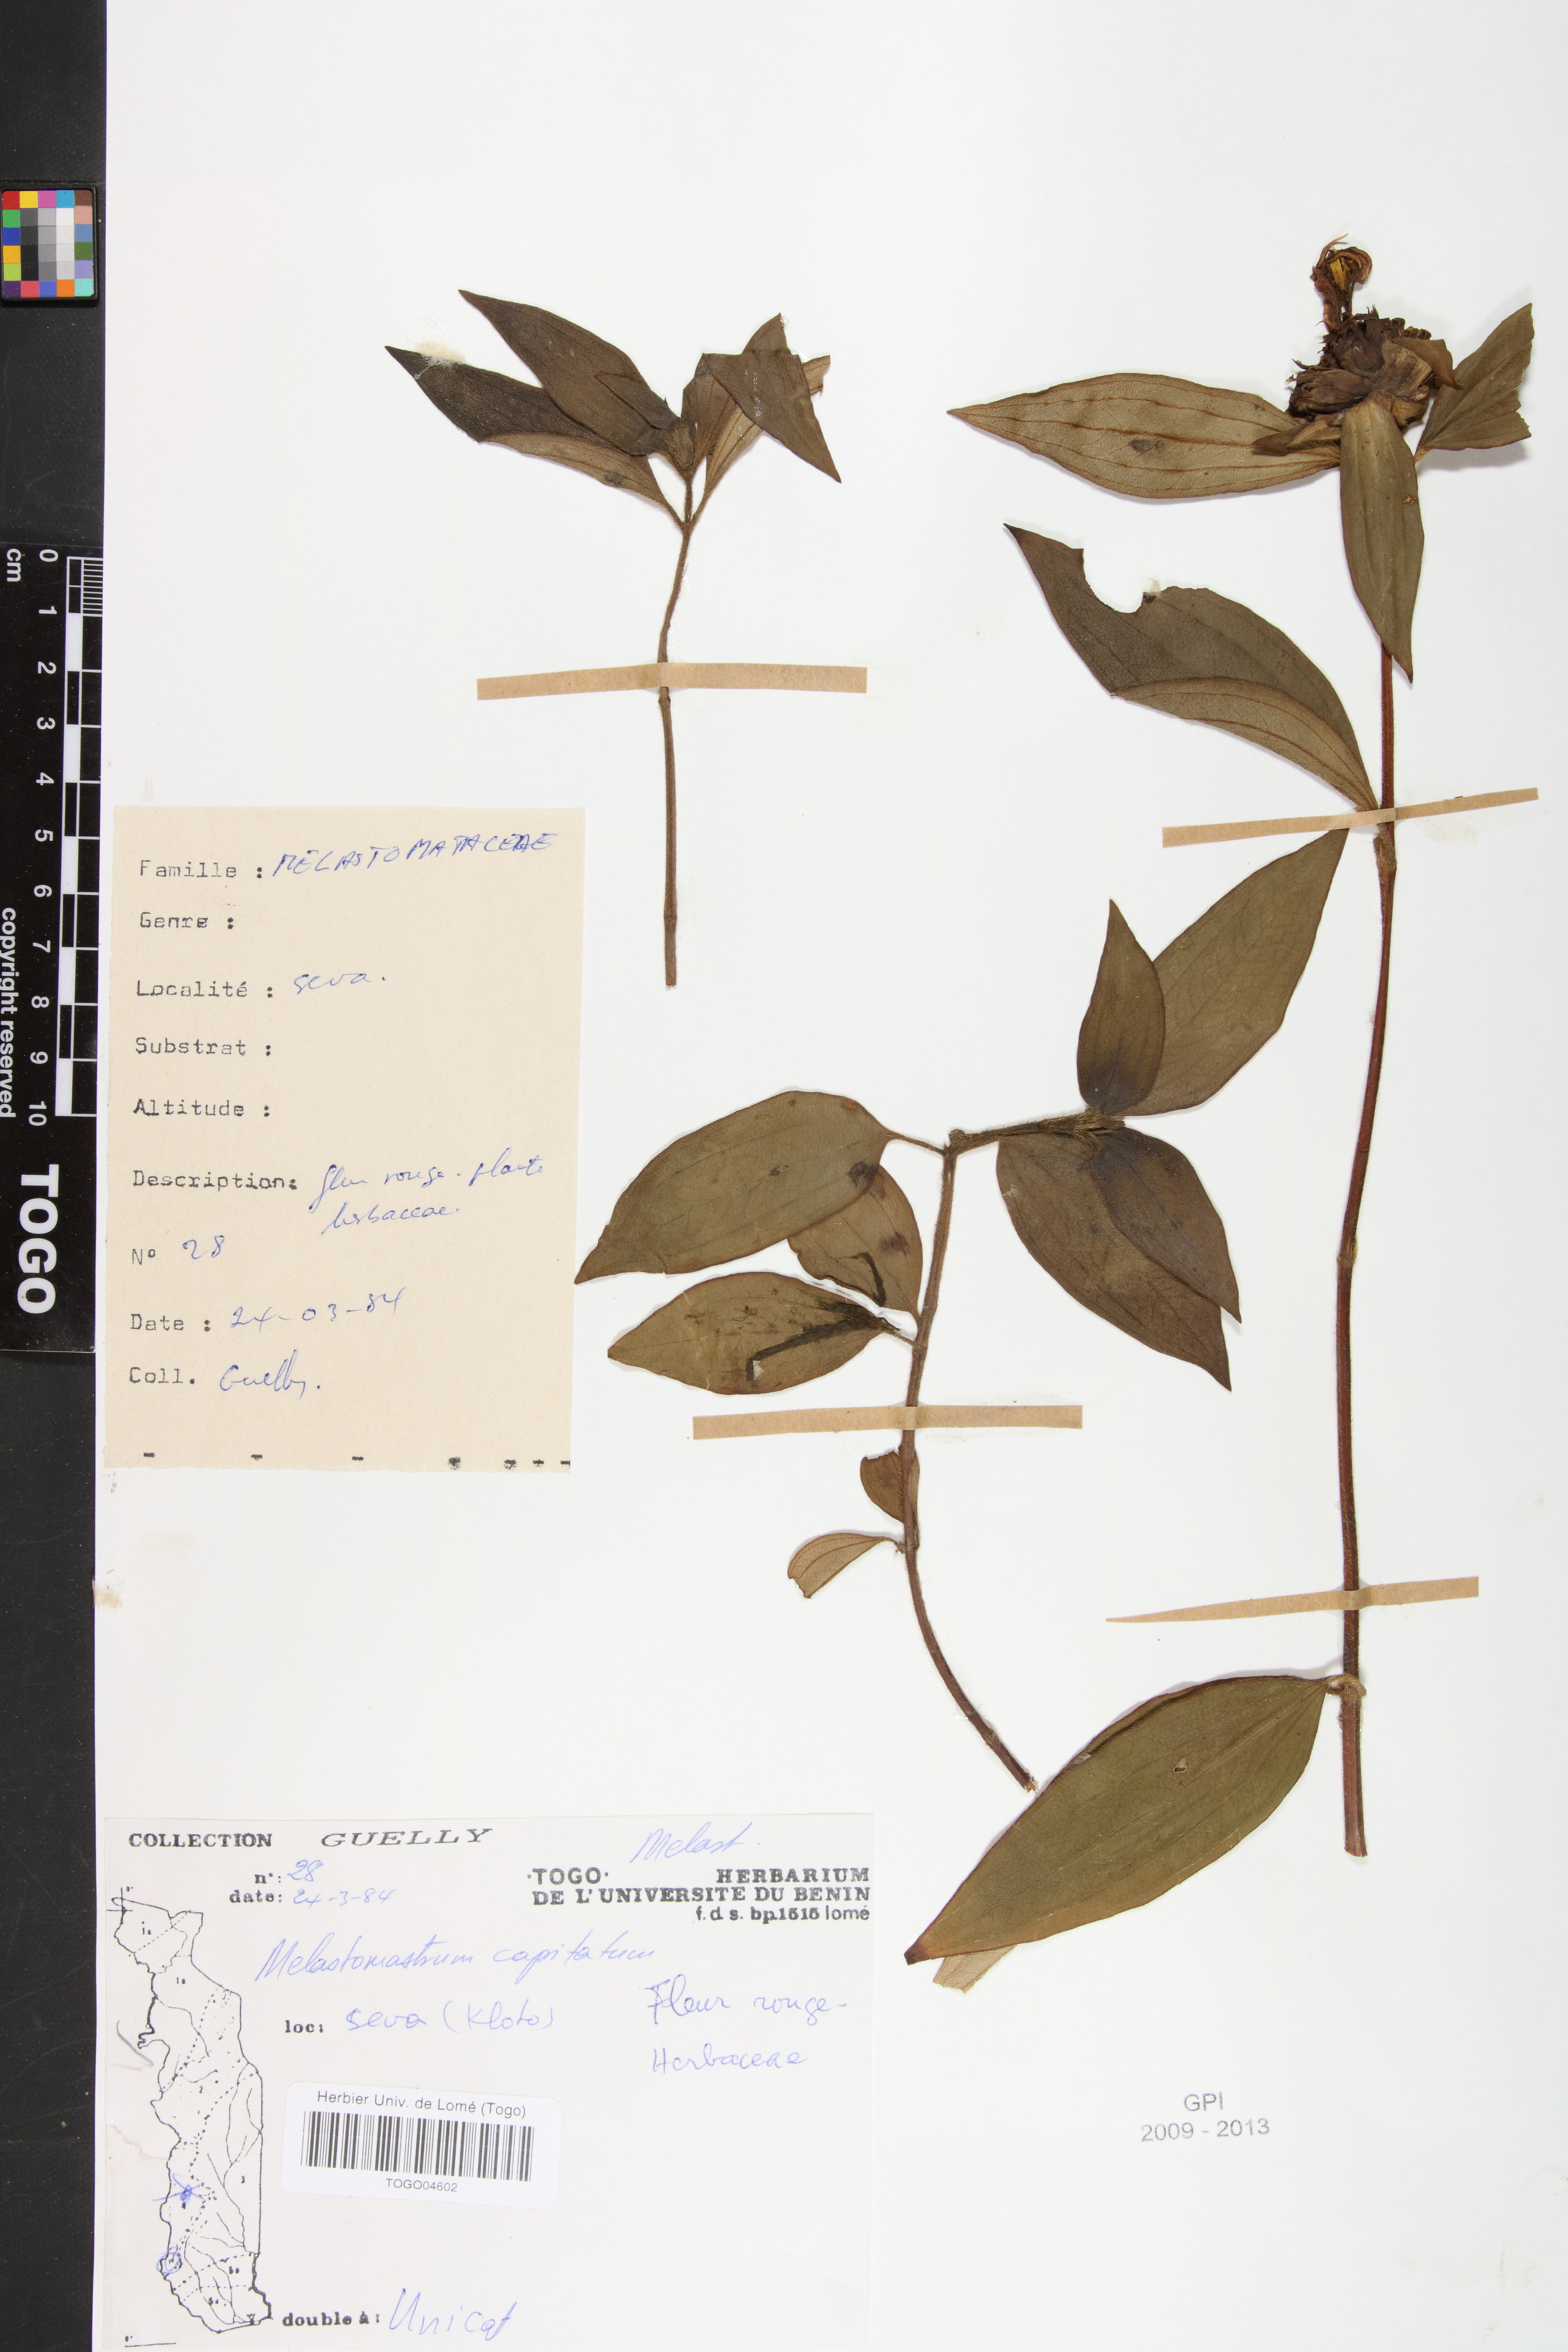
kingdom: Plantae
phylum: Tracheophyta
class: Magnoliopsida
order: Myrtales
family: Melastomataceae
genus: Melastomastrum
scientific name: Melastomastrum capitatum
